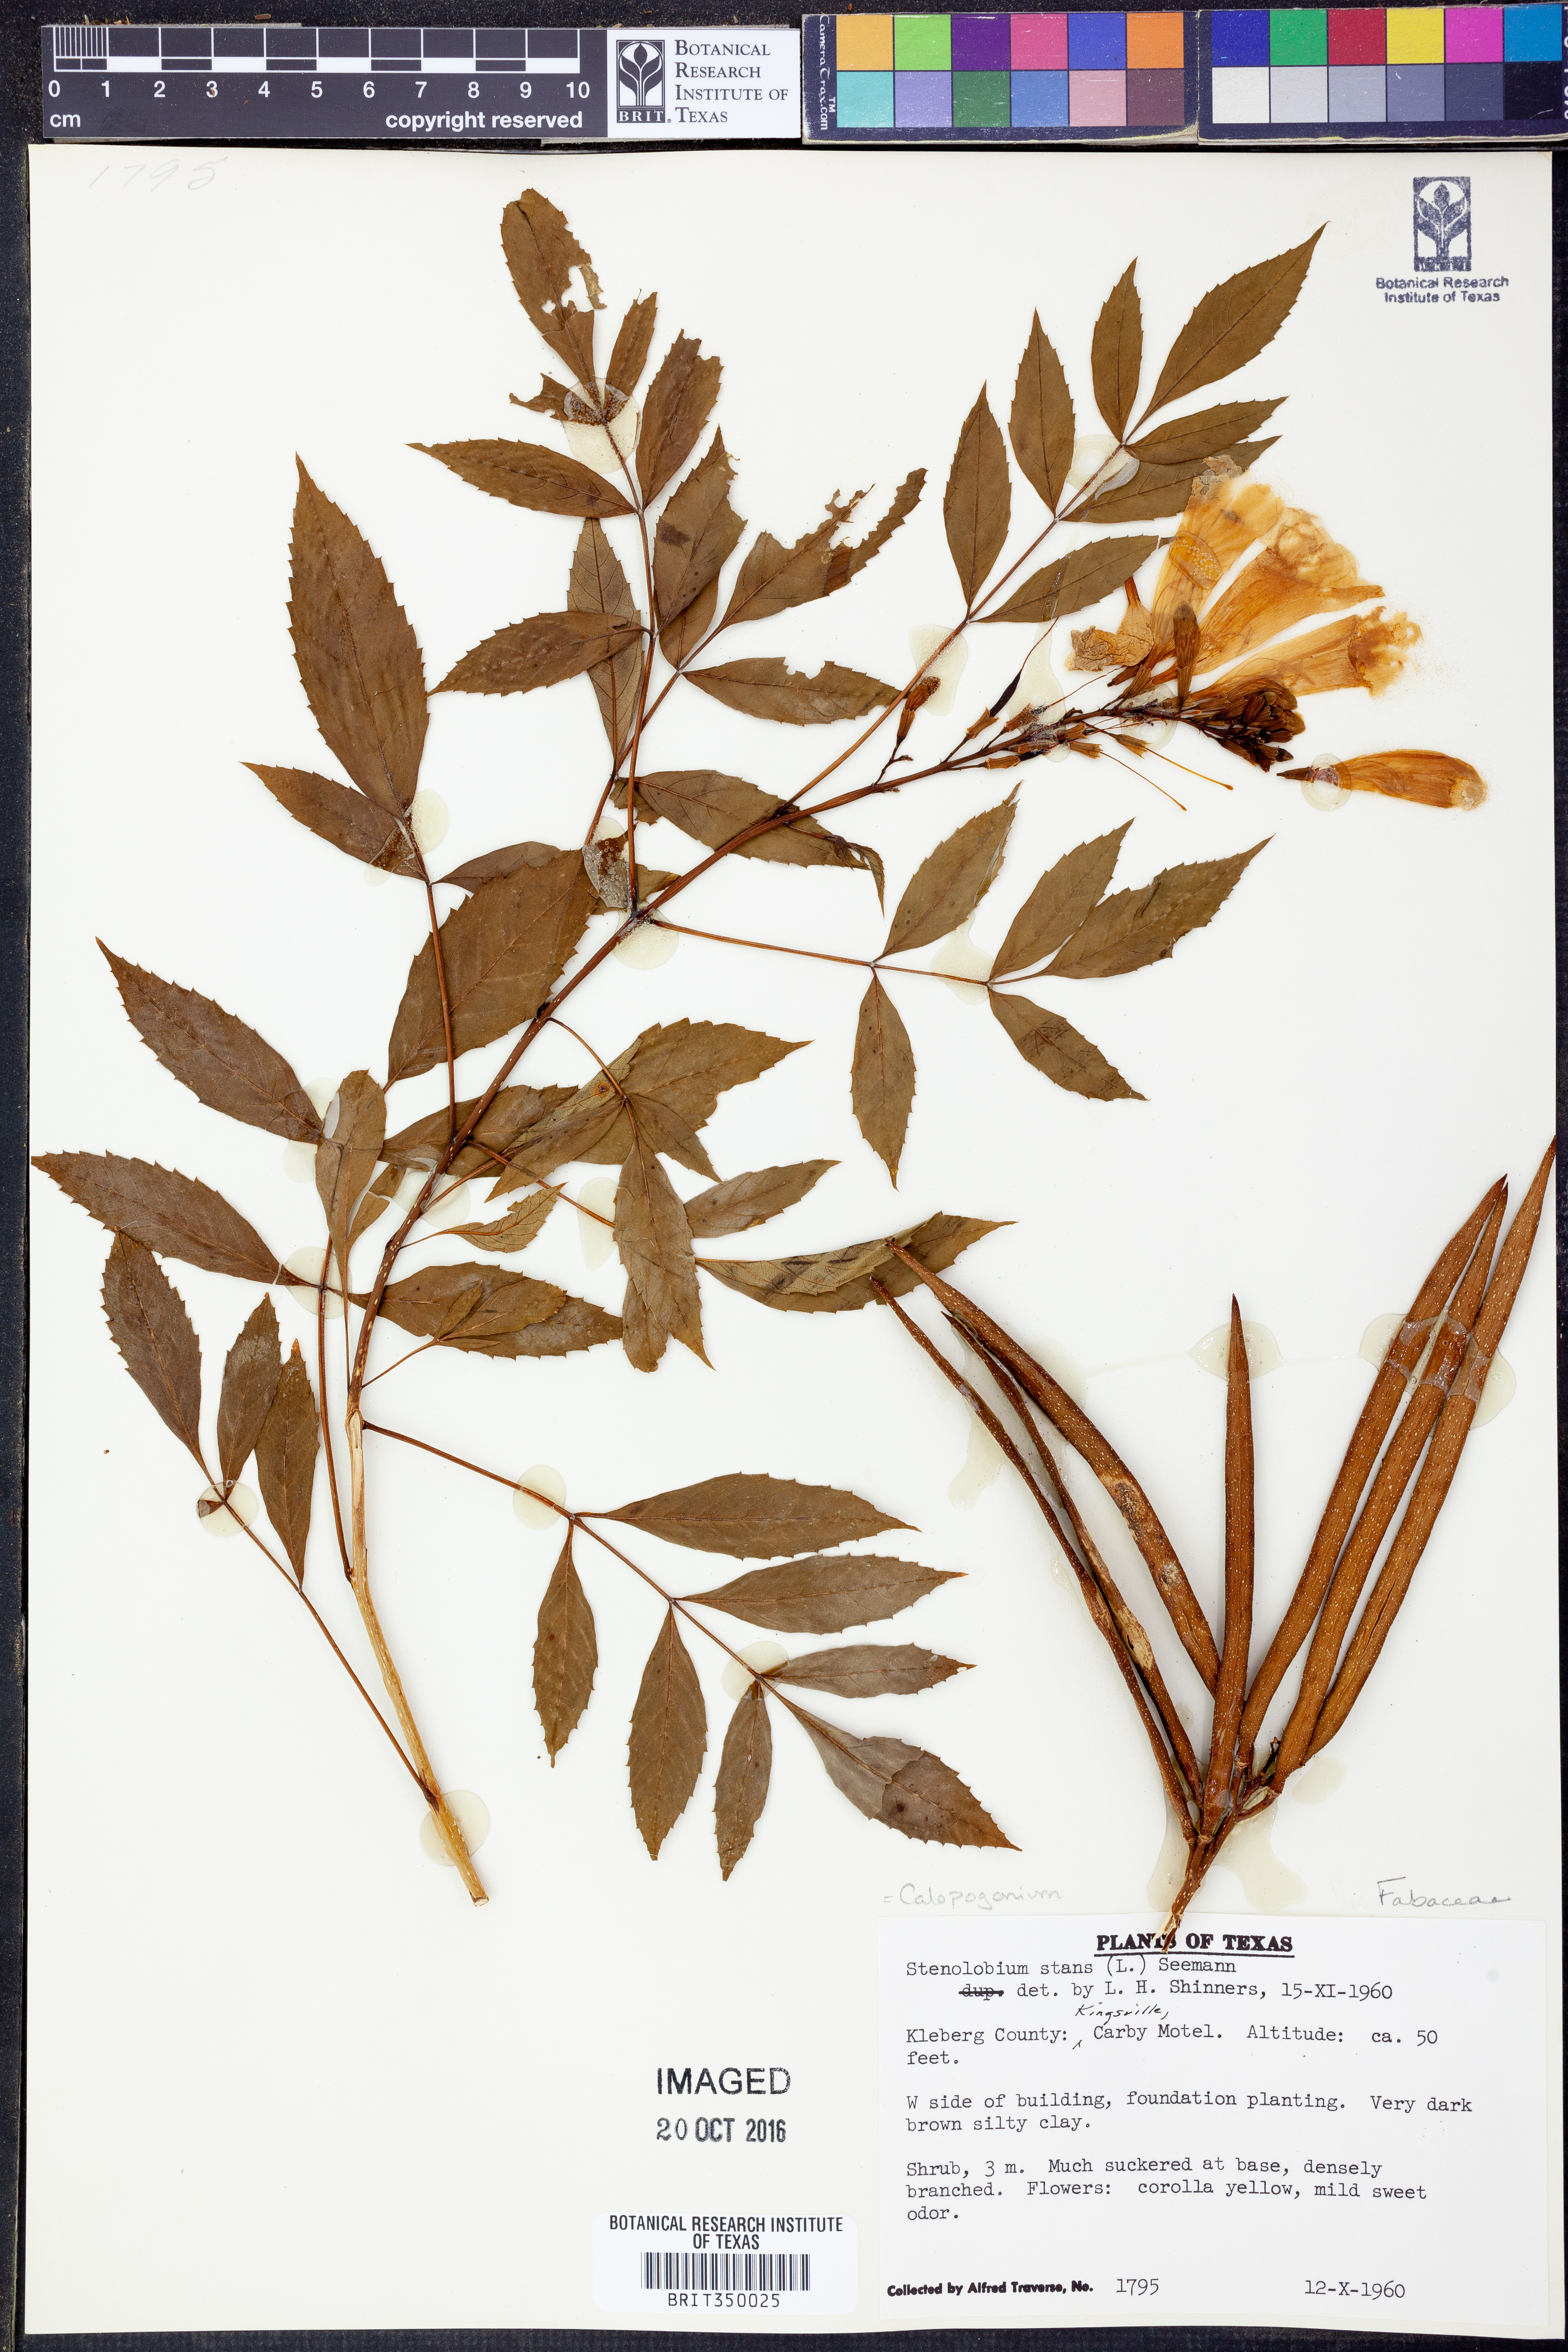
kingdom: Plantae
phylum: Tracheophyta
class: Magnoliopsida
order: Fabales
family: Fabaceae
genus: Calopogonium
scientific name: Calopogonium
